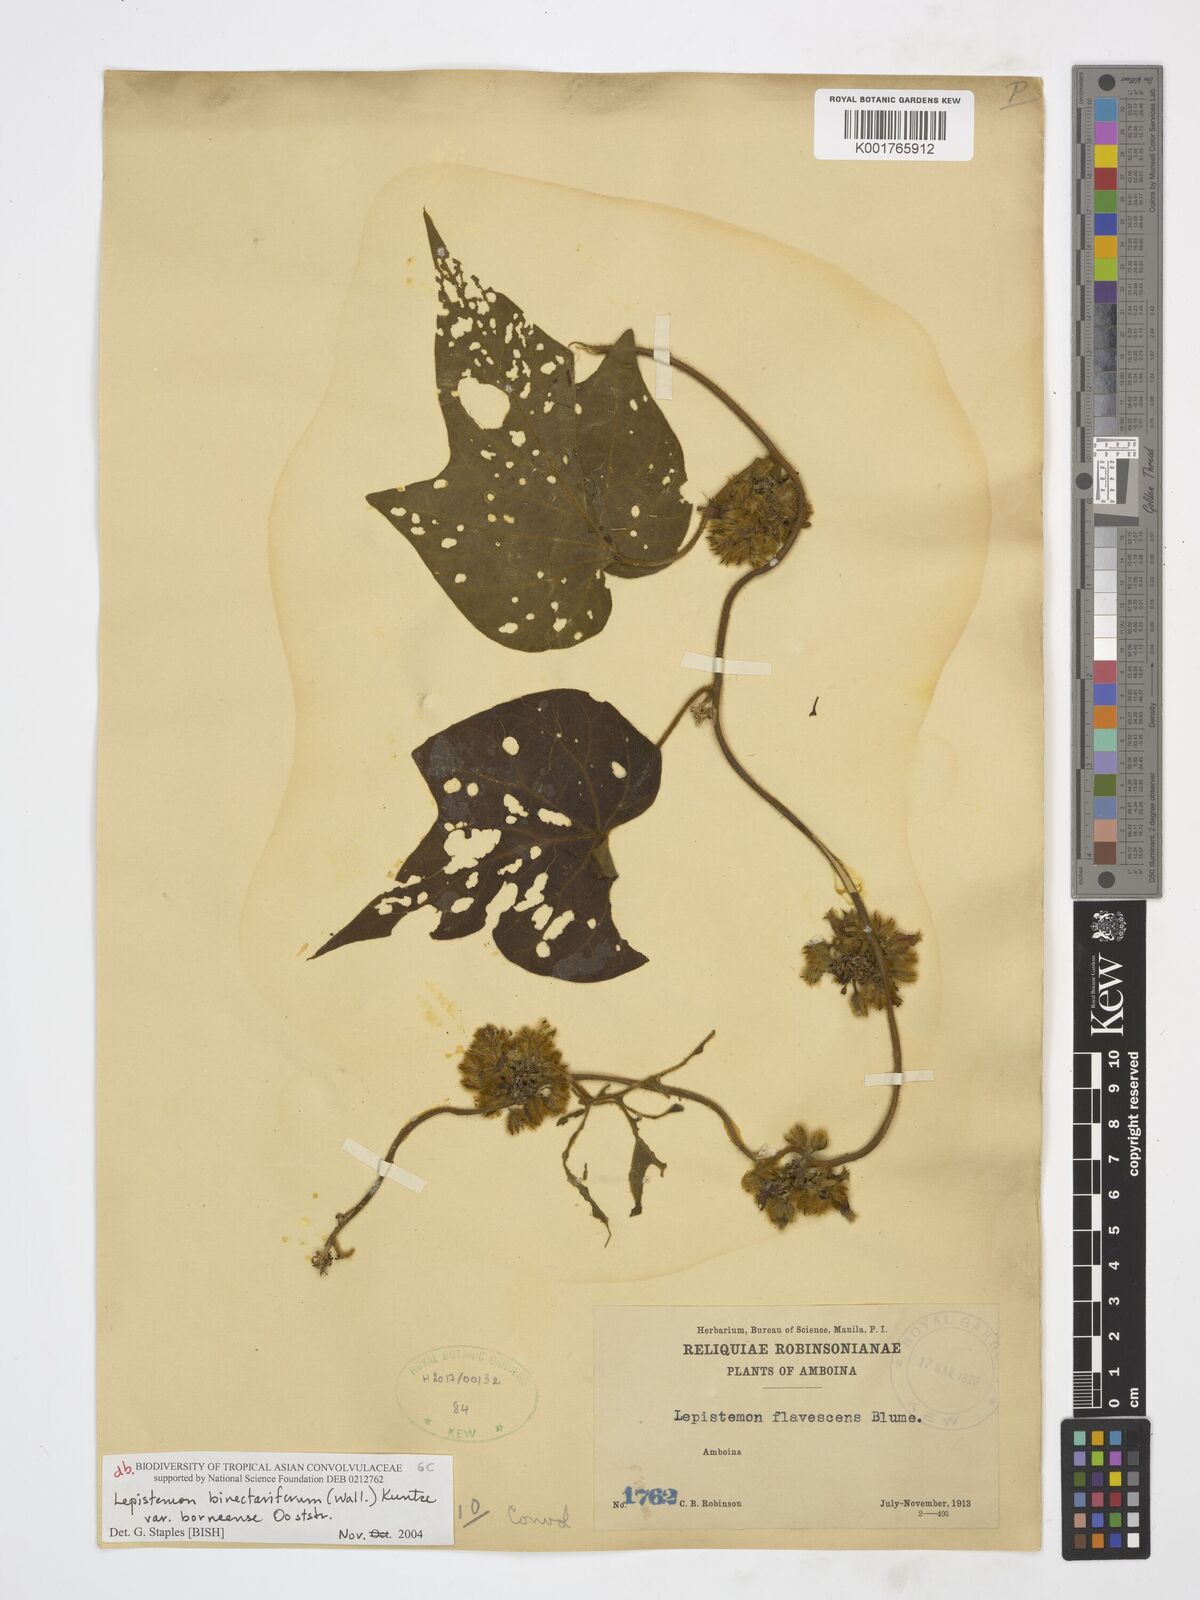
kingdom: Plantae
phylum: Tracheophyta
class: Magnoliopsida
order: Solanales
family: Convolvulaceae
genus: Lepistemon
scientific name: Lepistemon
